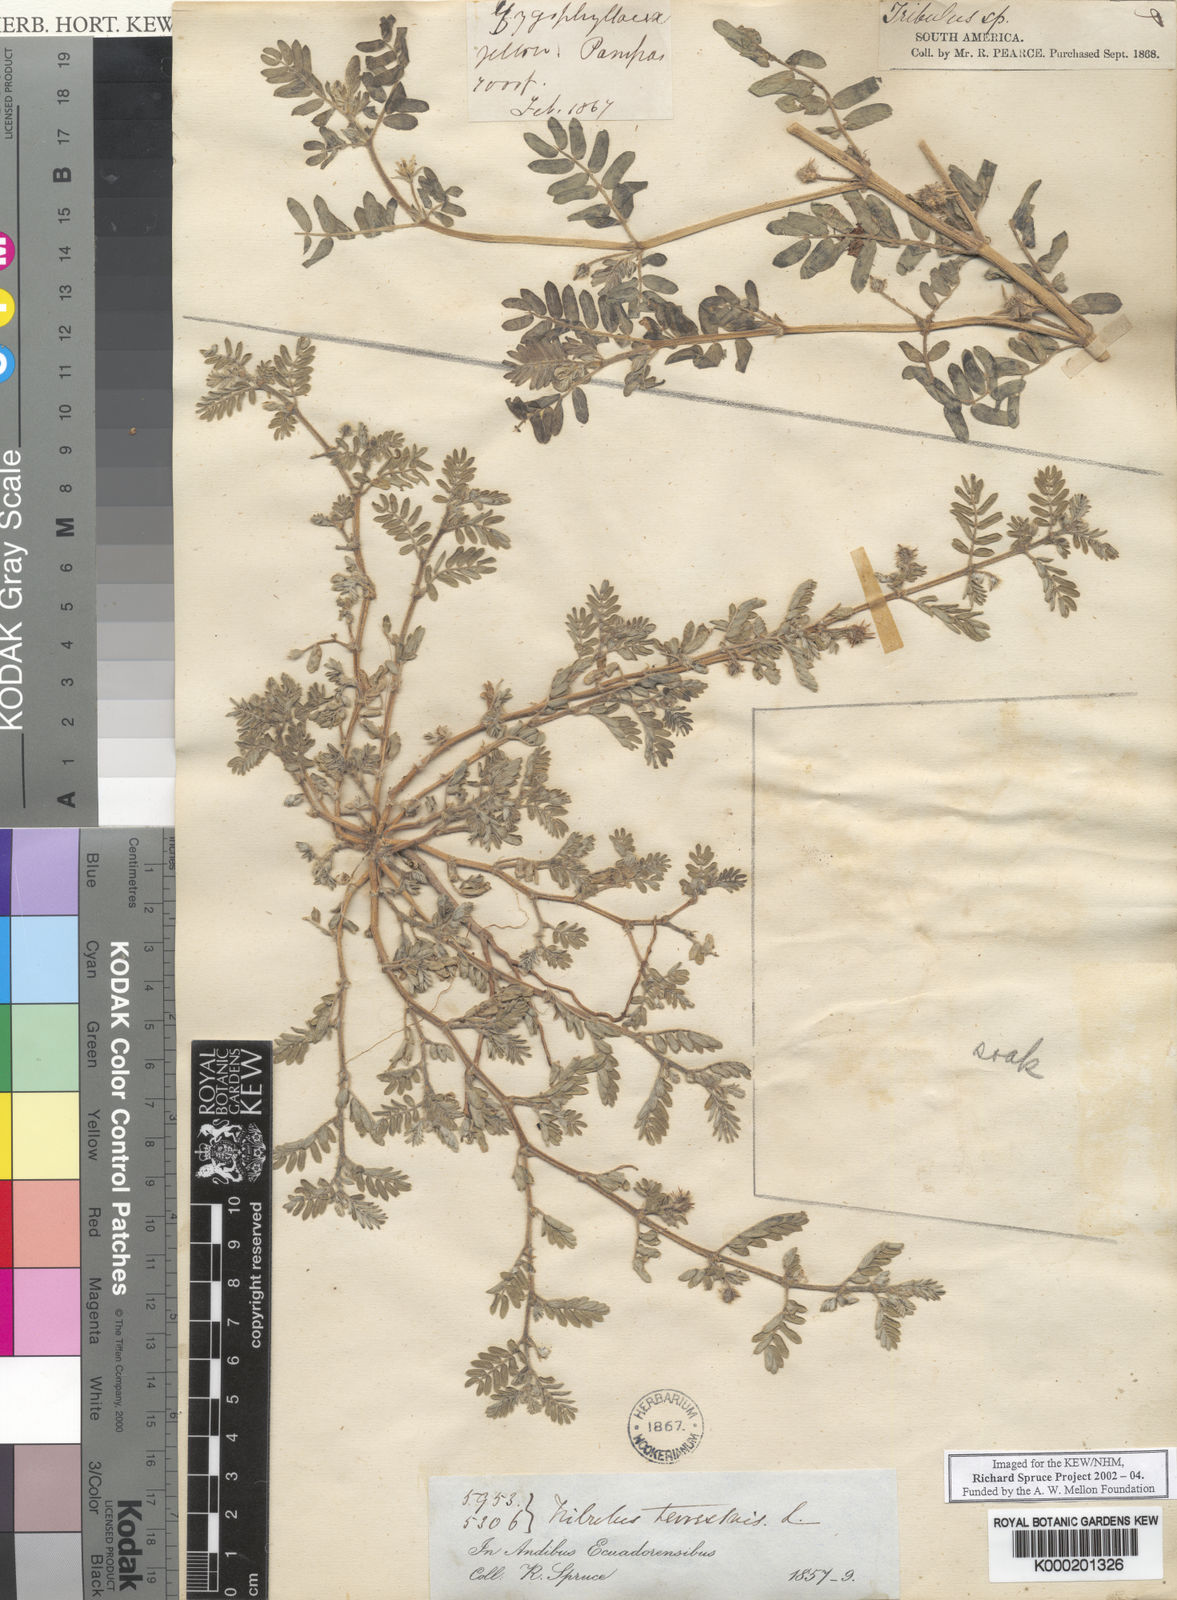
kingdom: Plantae
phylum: Tracheophyta
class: Magnoliopsida
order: Zygophyllales
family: Zygophyllaceae
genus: Tribulus
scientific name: Tribulus terrestris
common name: Puncturevine
